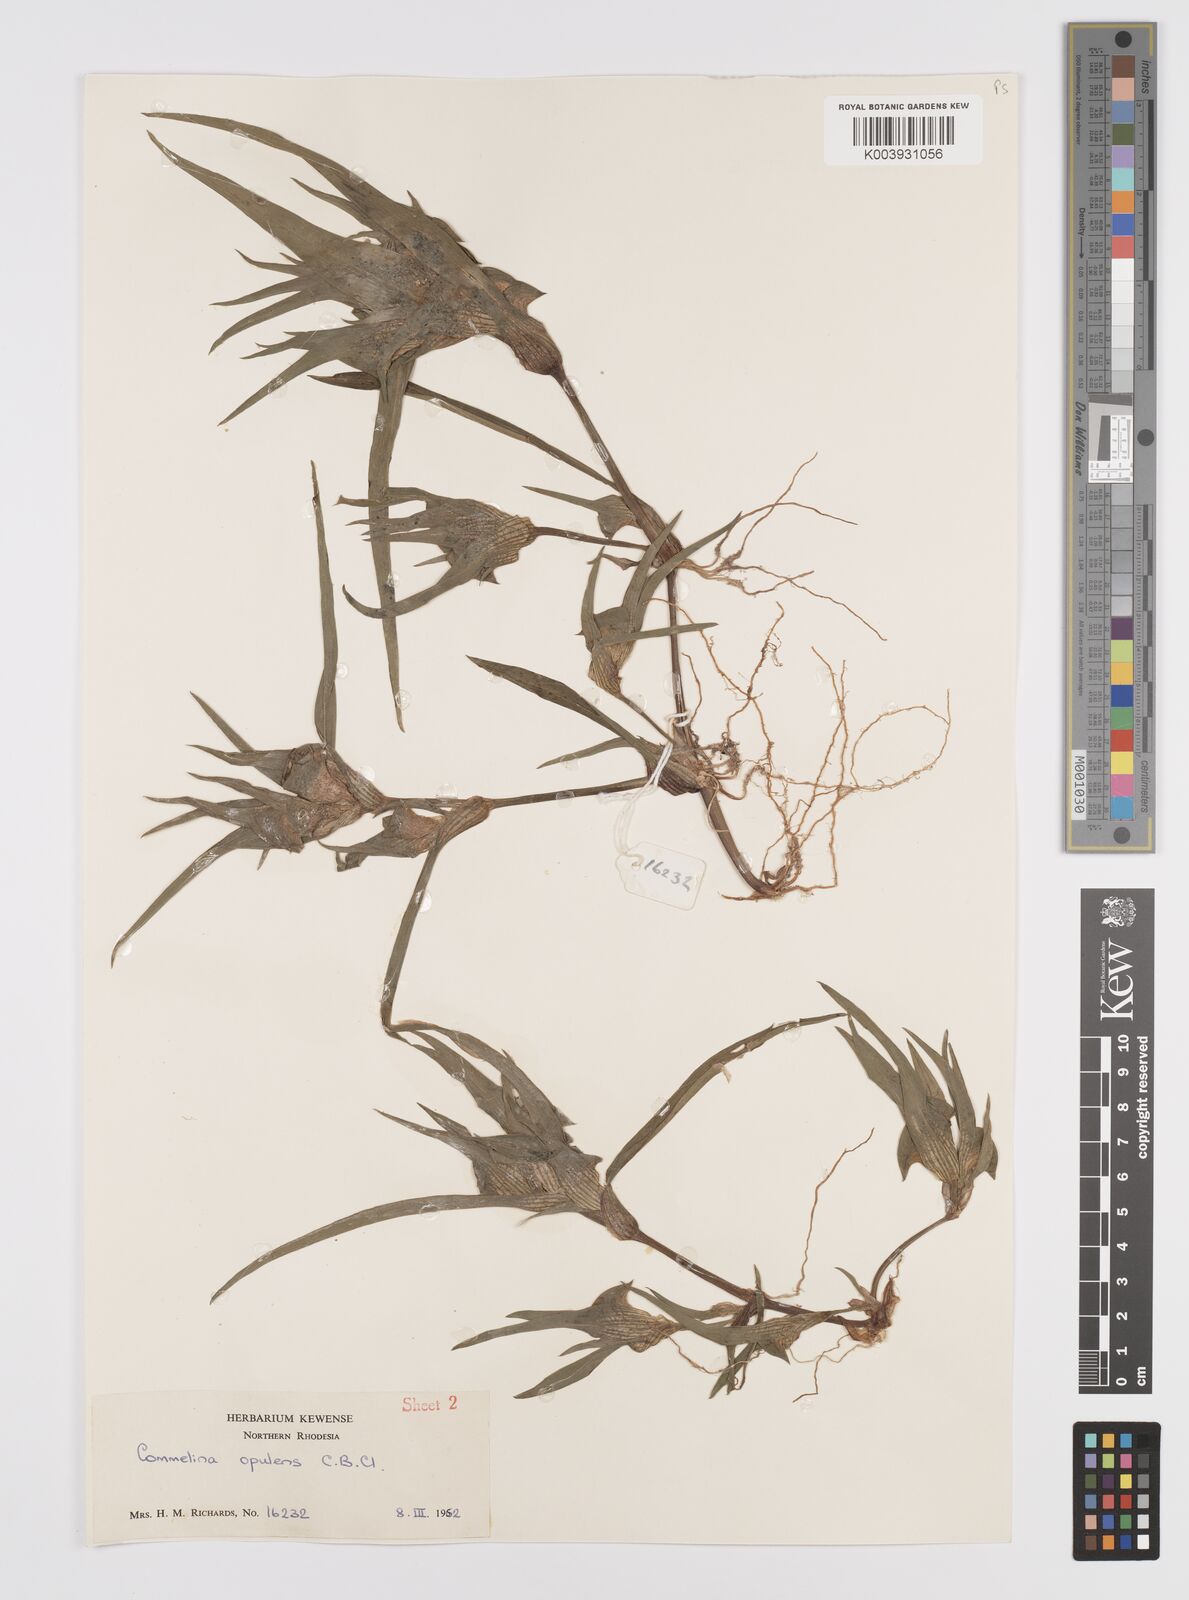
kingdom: Plantae
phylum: Tracheophyta
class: Liliopsida
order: Commelinales
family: Commelinaceae
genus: Commelina
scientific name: Commelina aspera
